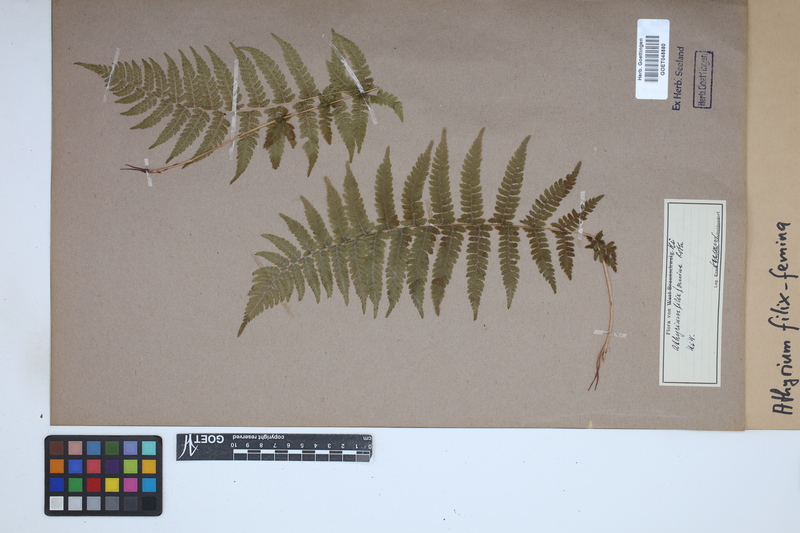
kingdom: Plantae
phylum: Tracheophyta
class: Polypodiopsida
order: Polypodiales
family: Athyriaceae
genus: Athyrium
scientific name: Athyrium filix-femina
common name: Lady fern
